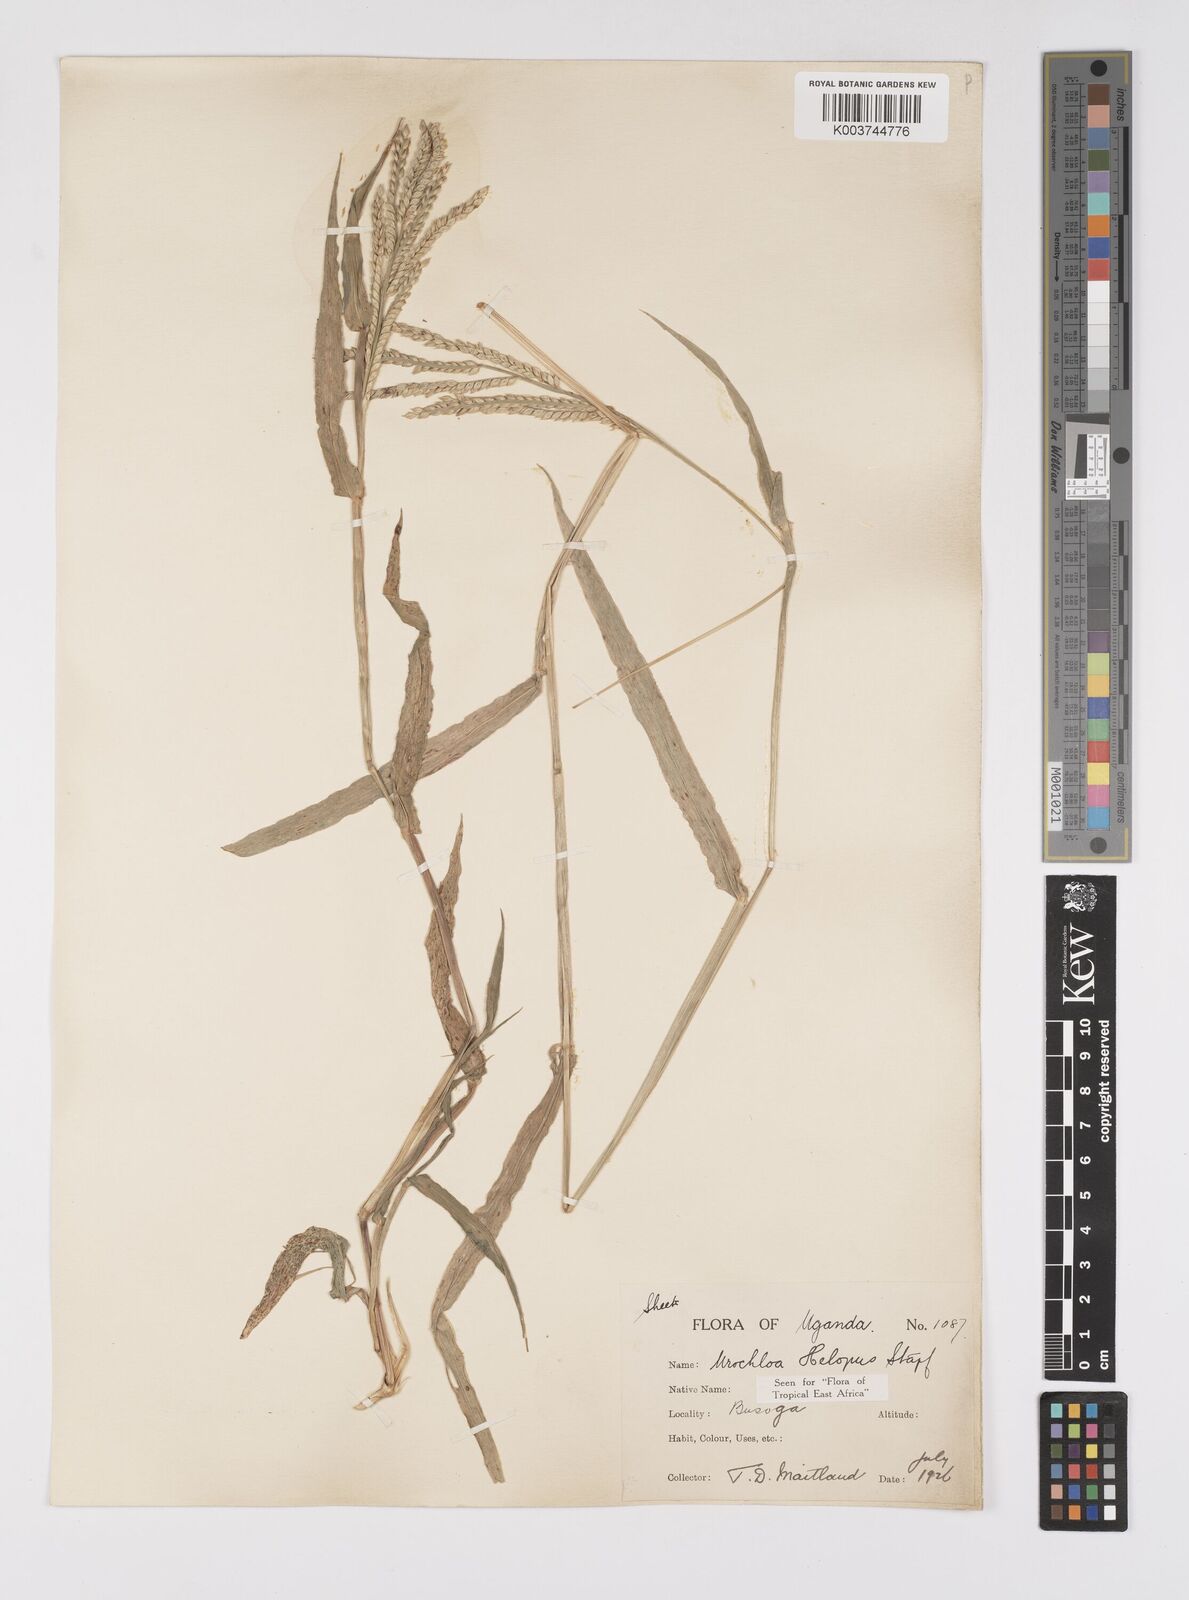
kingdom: Plantae
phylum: Tracheophyta
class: Liliopsida
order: Poales
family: Poaceae
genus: Urochloa
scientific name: Urochloa panicoides
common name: Sharp-flowered signal-grass
